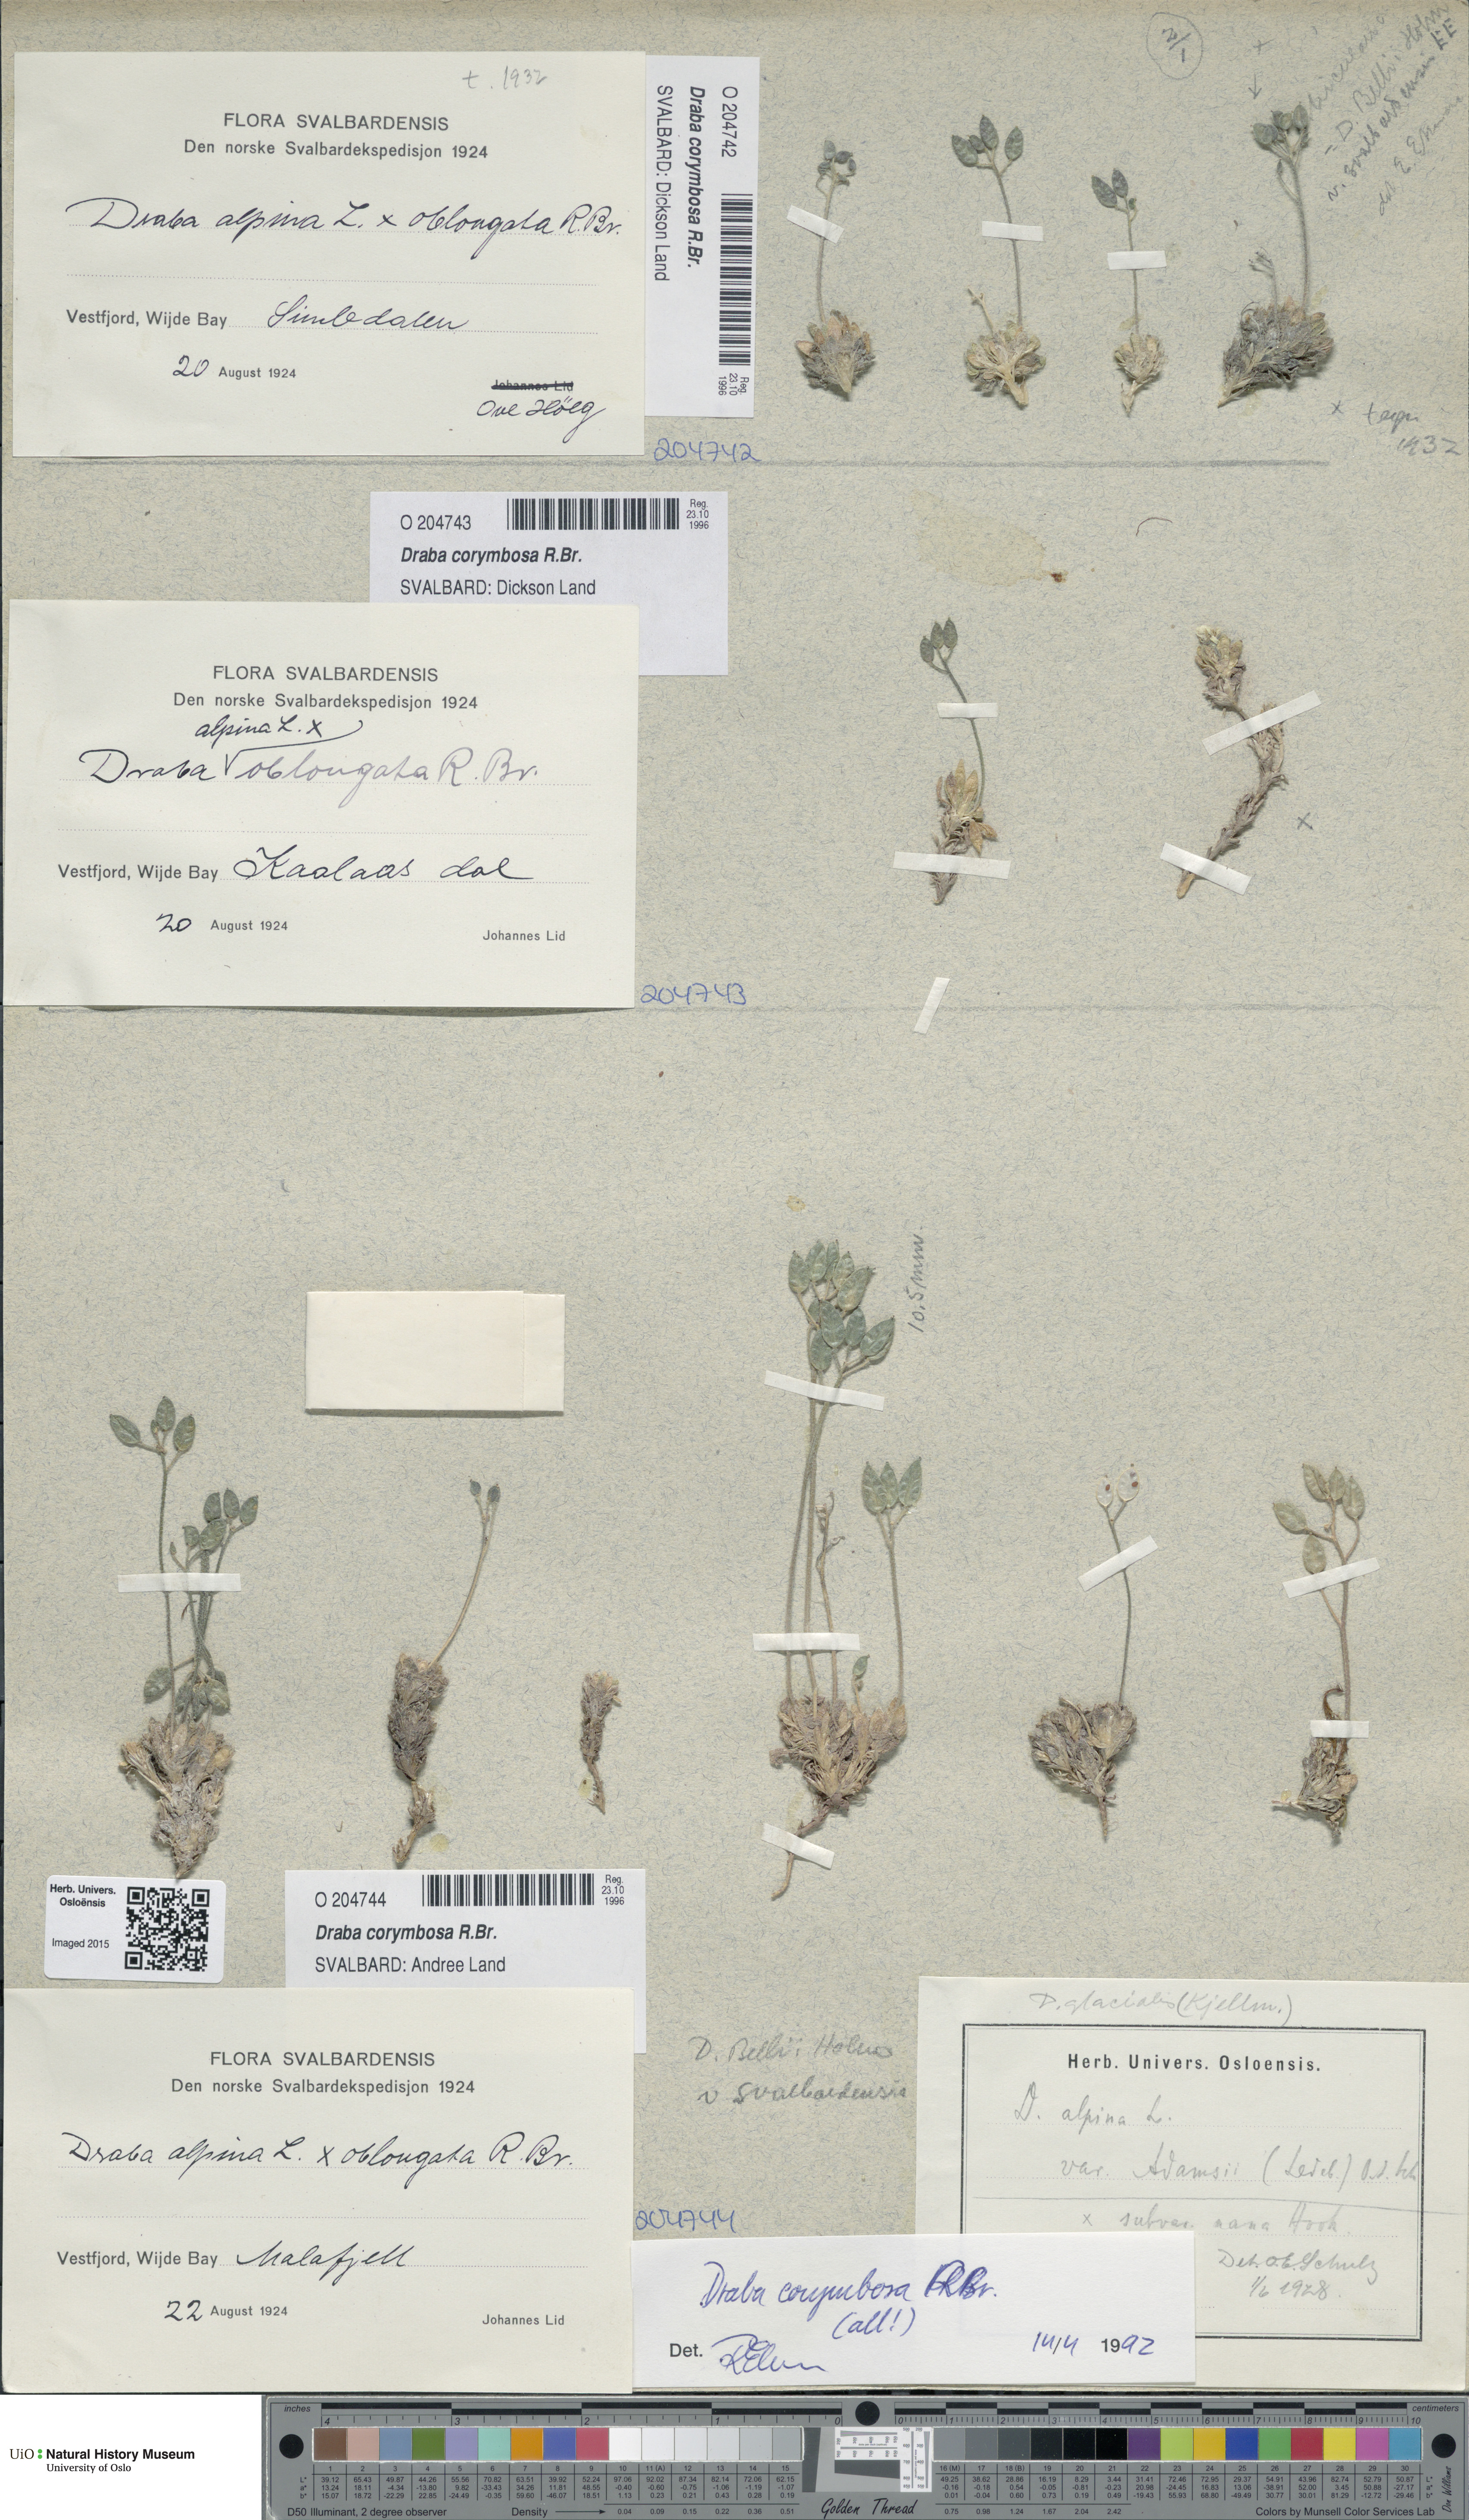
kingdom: Plantae
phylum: Tracheophyta
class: Magnoliopsida
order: Brassicales
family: Brassicaceae
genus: Draba
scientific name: Draba corymbosa
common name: Cushion whitlow-grass
